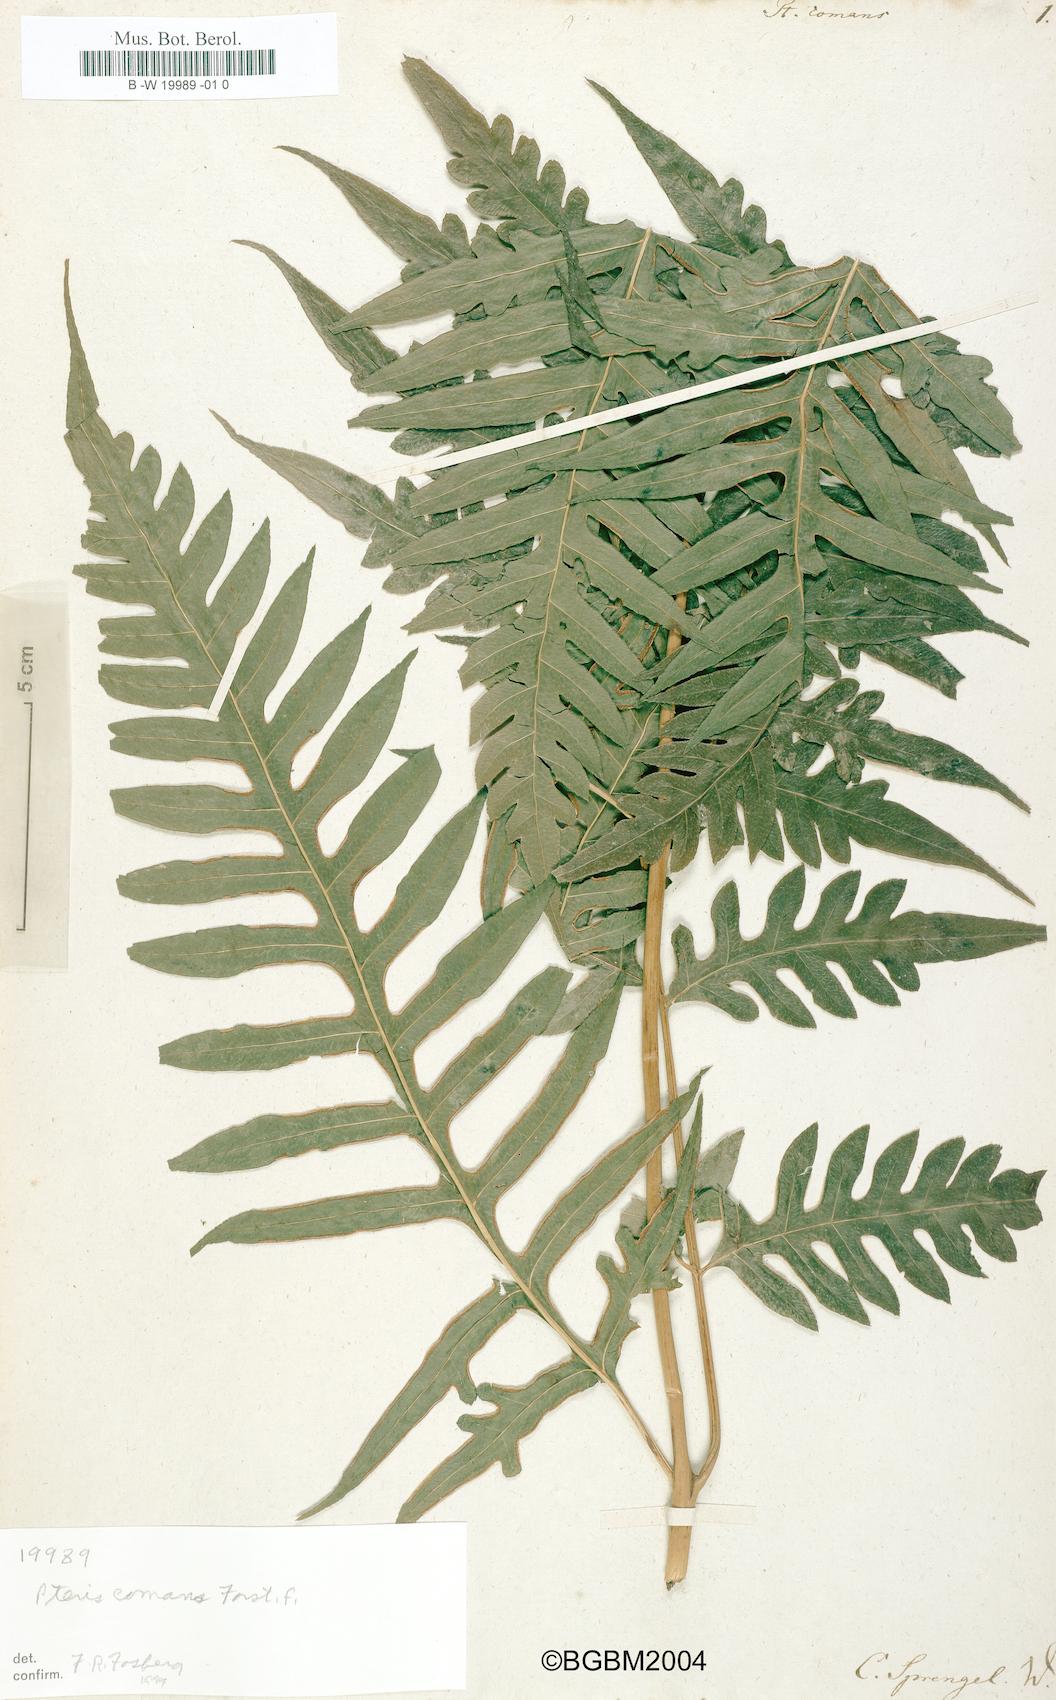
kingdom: Plantae
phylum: Tracheophyta
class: Polypodiopsida
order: Polypodiales
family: Pteridaceae
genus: Pteris
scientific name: Pteris comans
